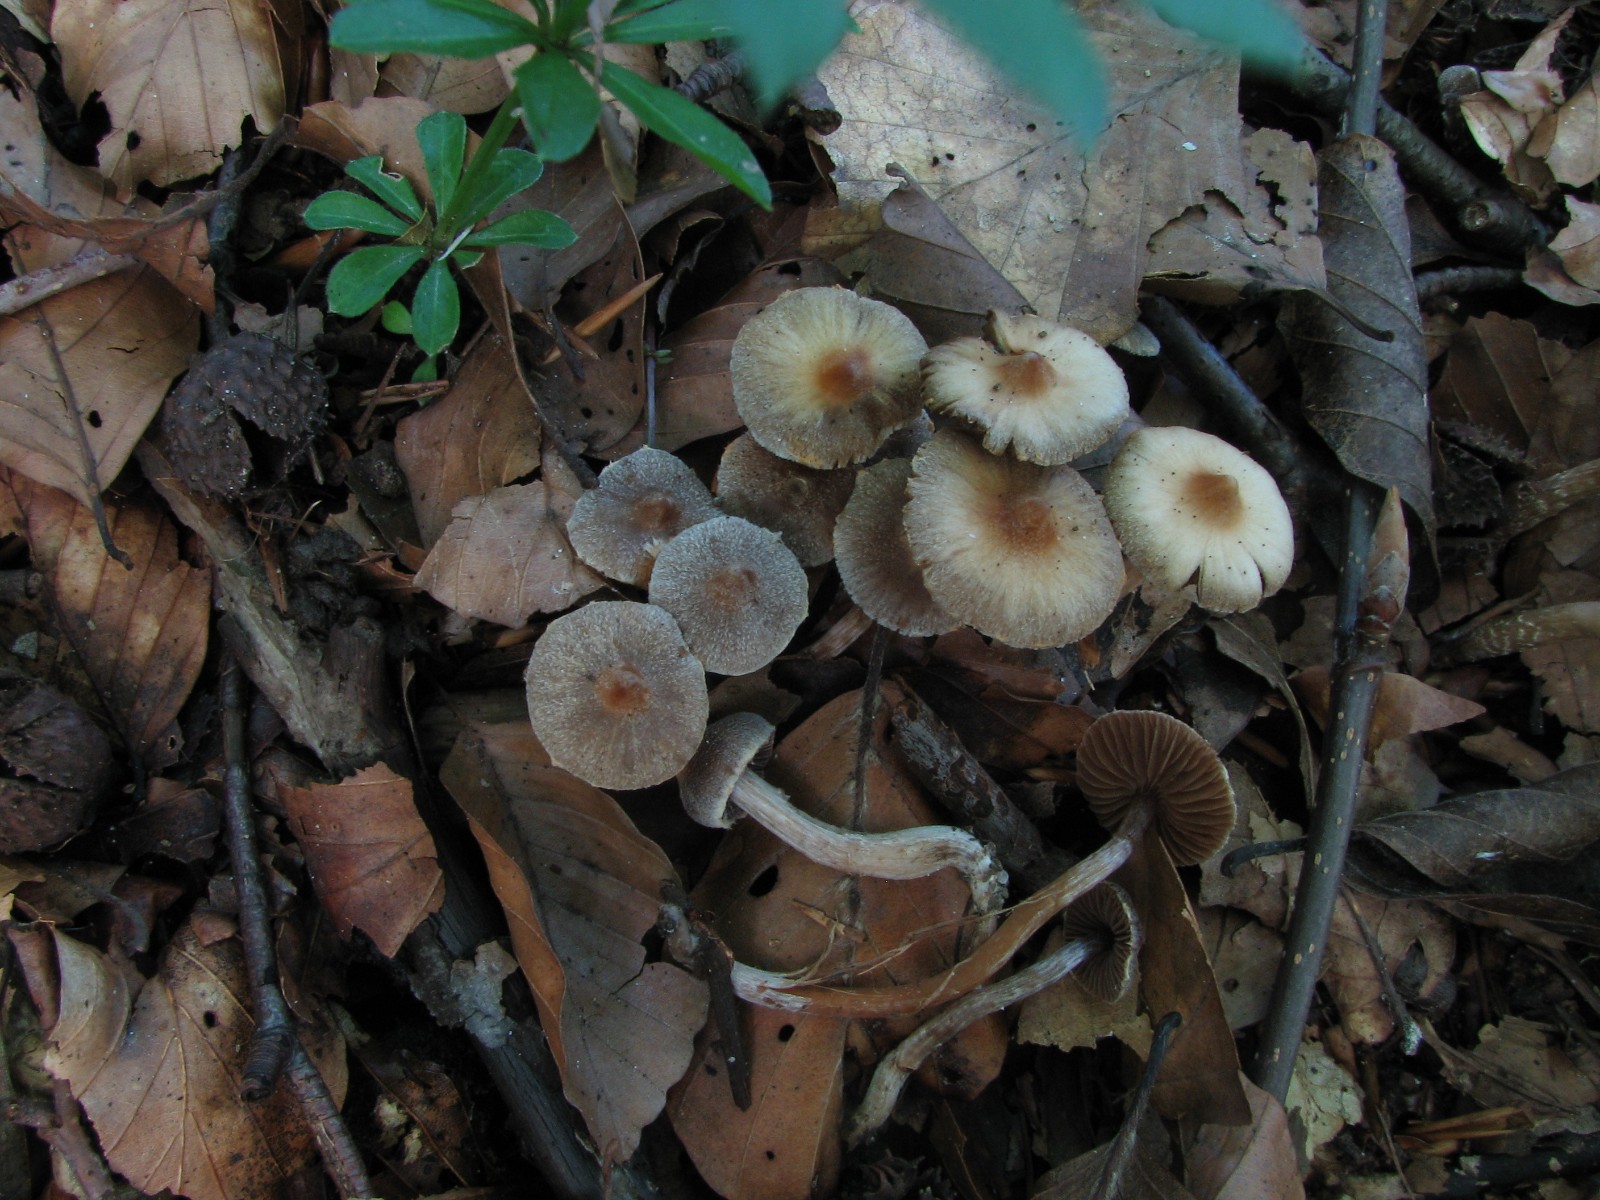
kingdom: Fungi
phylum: Basidiomycota
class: Agaricomycetes
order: Agaricales
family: Cortinariaceae
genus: Cortinarius
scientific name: Cortinarius violaceopapillatus
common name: brunøjet slørhat
